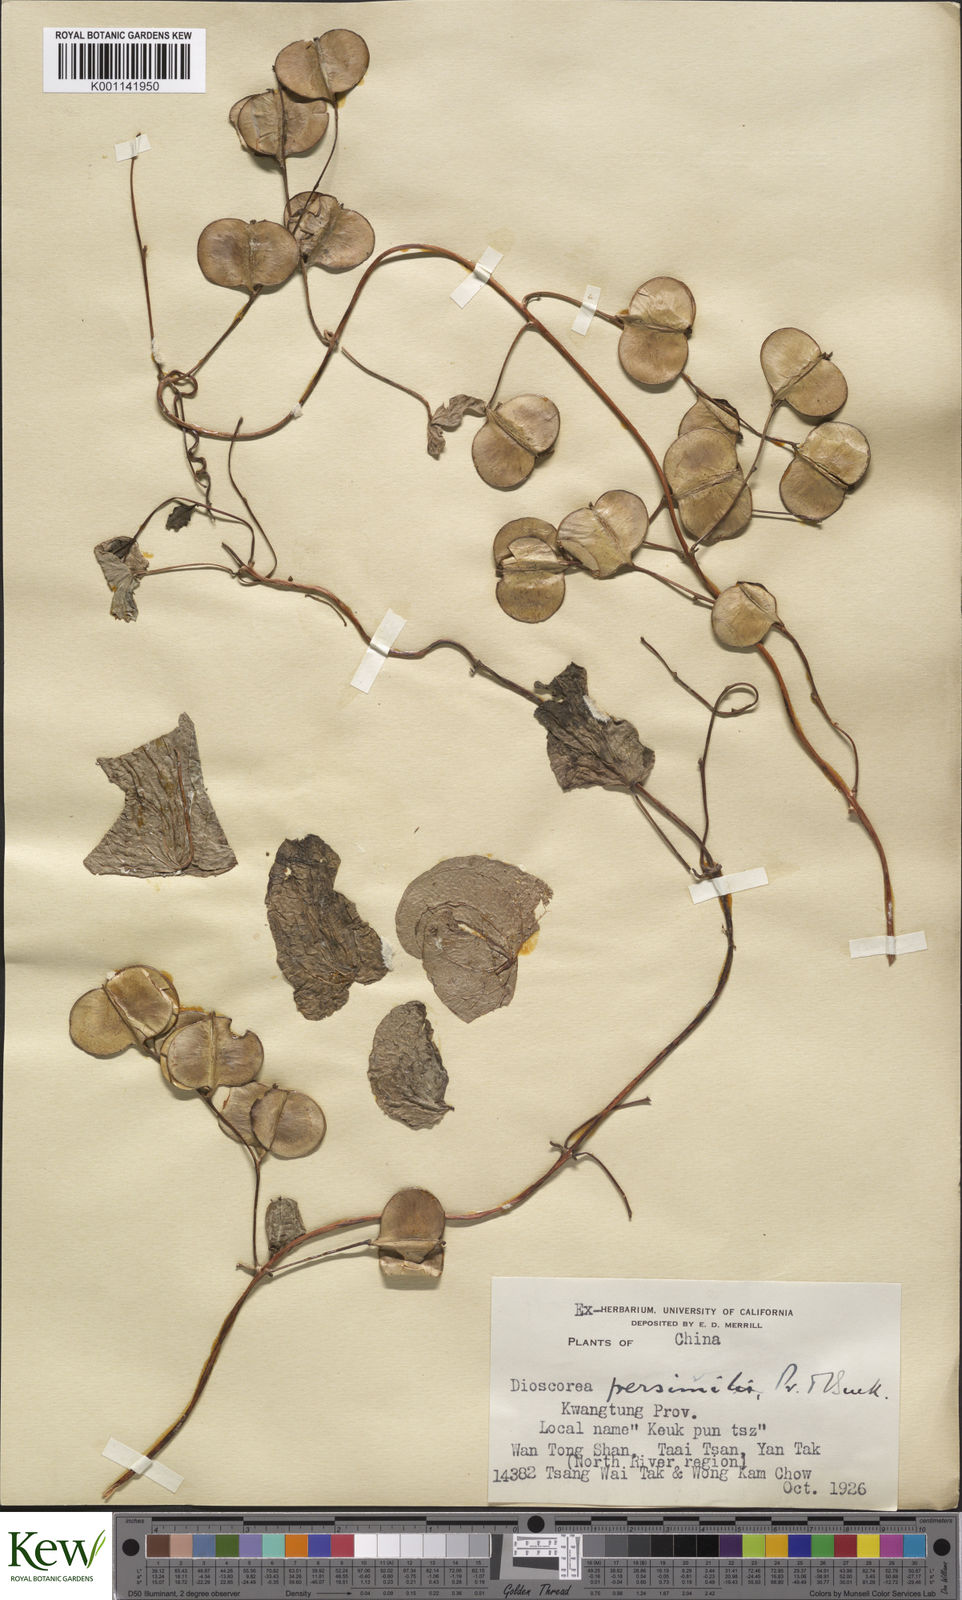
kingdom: Plantae
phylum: Tracheophyta
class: Liliopsida
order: Dioscoreales
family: Dioscoreaceae
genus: Dioscorea
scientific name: Dioscorea hamiltonii
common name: Mountain yam
